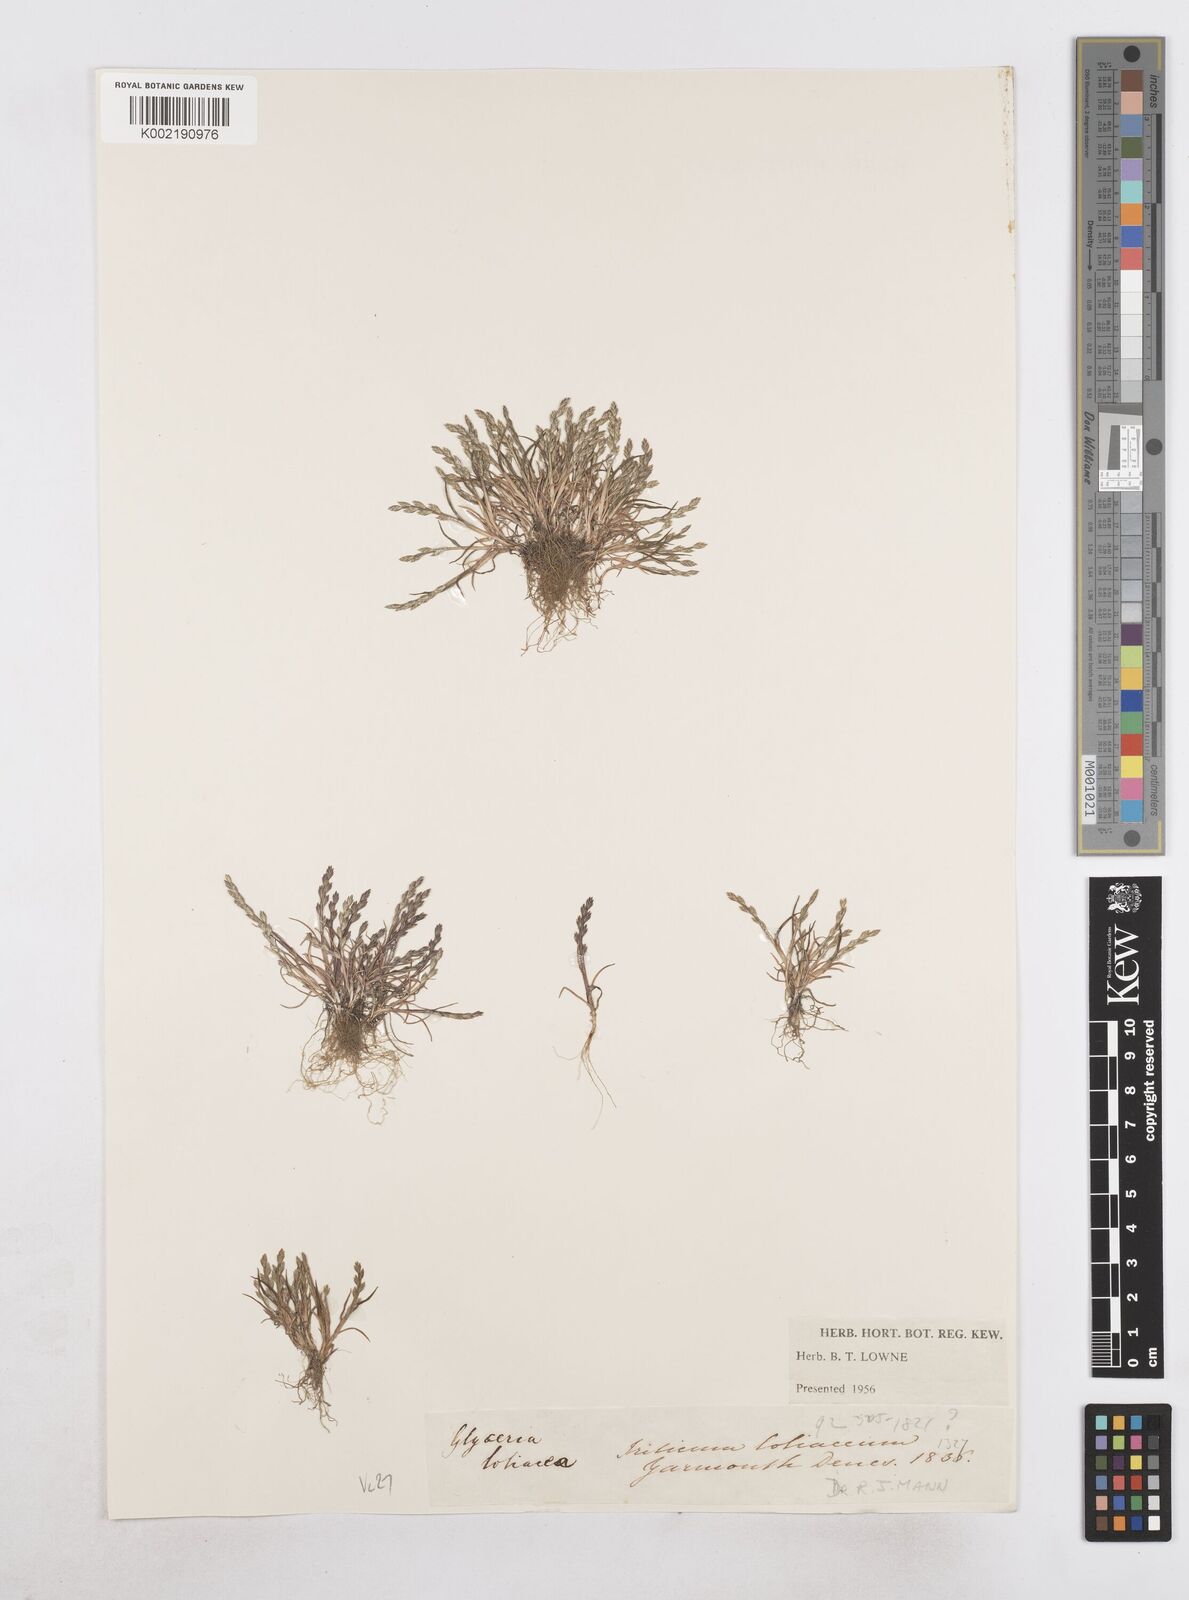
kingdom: Plantae
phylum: Tracheophyta
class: Liliopsida
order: Poales
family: Poaceae
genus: Catapodium
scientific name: Catapodium marinum
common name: Sea fern-grass
